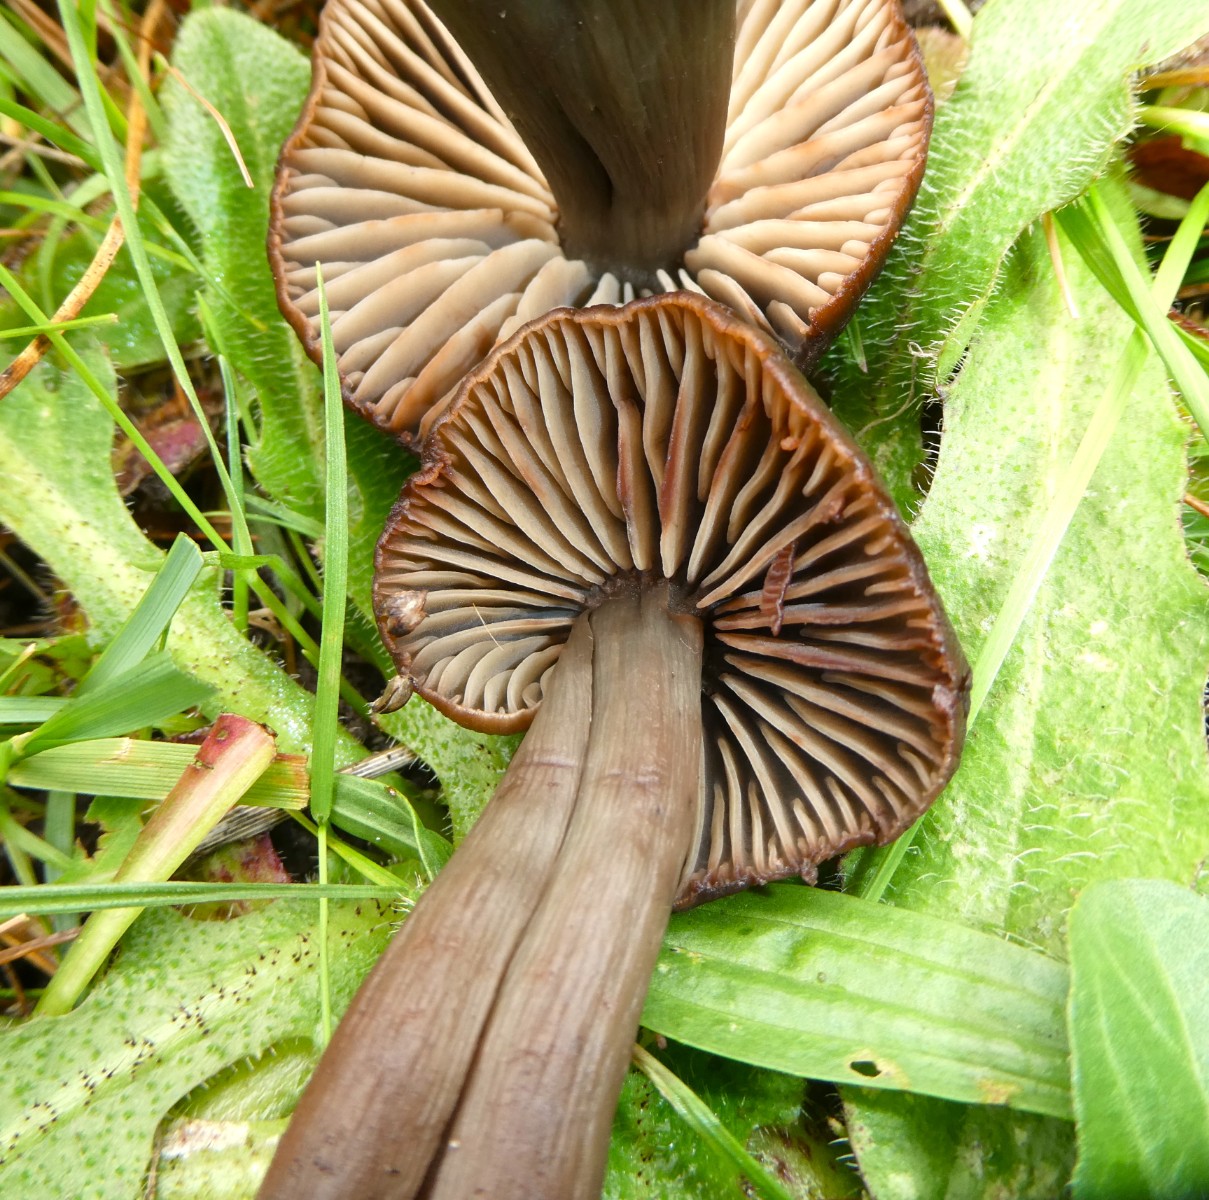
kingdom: Fungi
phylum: Basidiomycota
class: Agaricomycetes
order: Agaricales
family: Hygrophoraceae
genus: Neohygrocybe
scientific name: Neohygrocybe ovina
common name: rødmende vokshat
